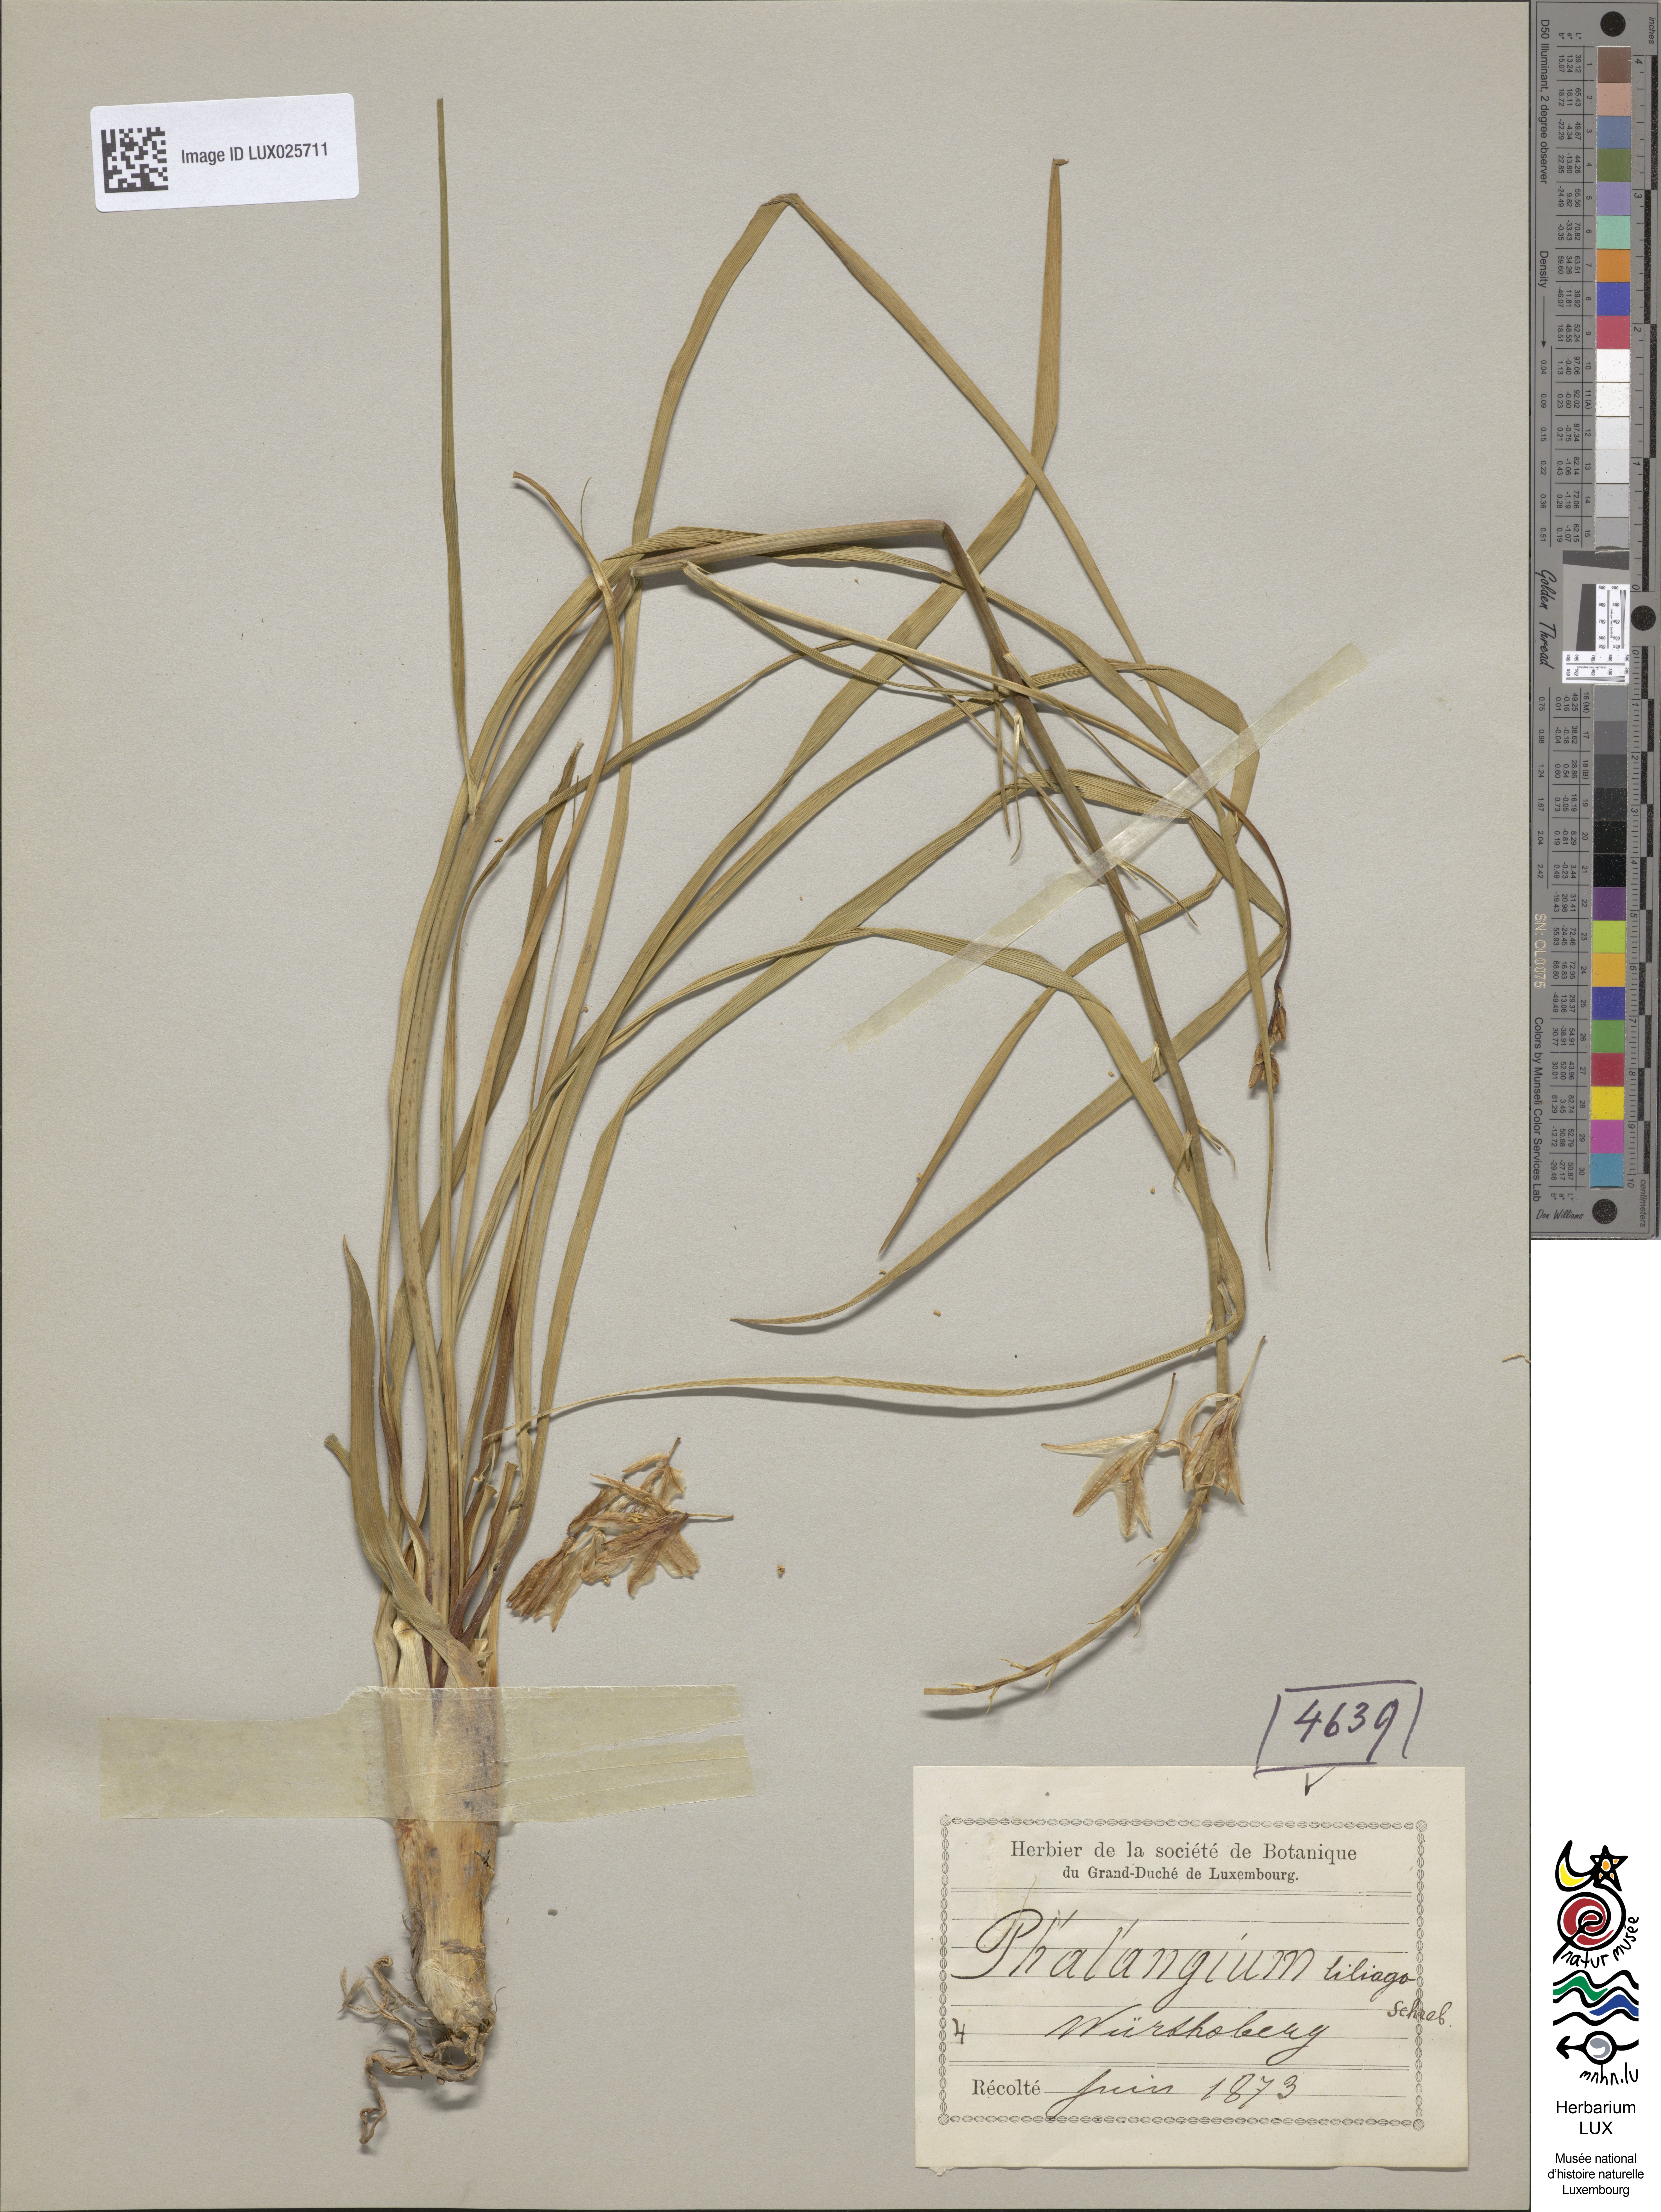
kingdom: Plantae
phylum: Tracheophyta
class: Liliopsida
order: Asparagales
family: Asparagaceae
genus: Anthericum
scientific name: Anthericum liliago
